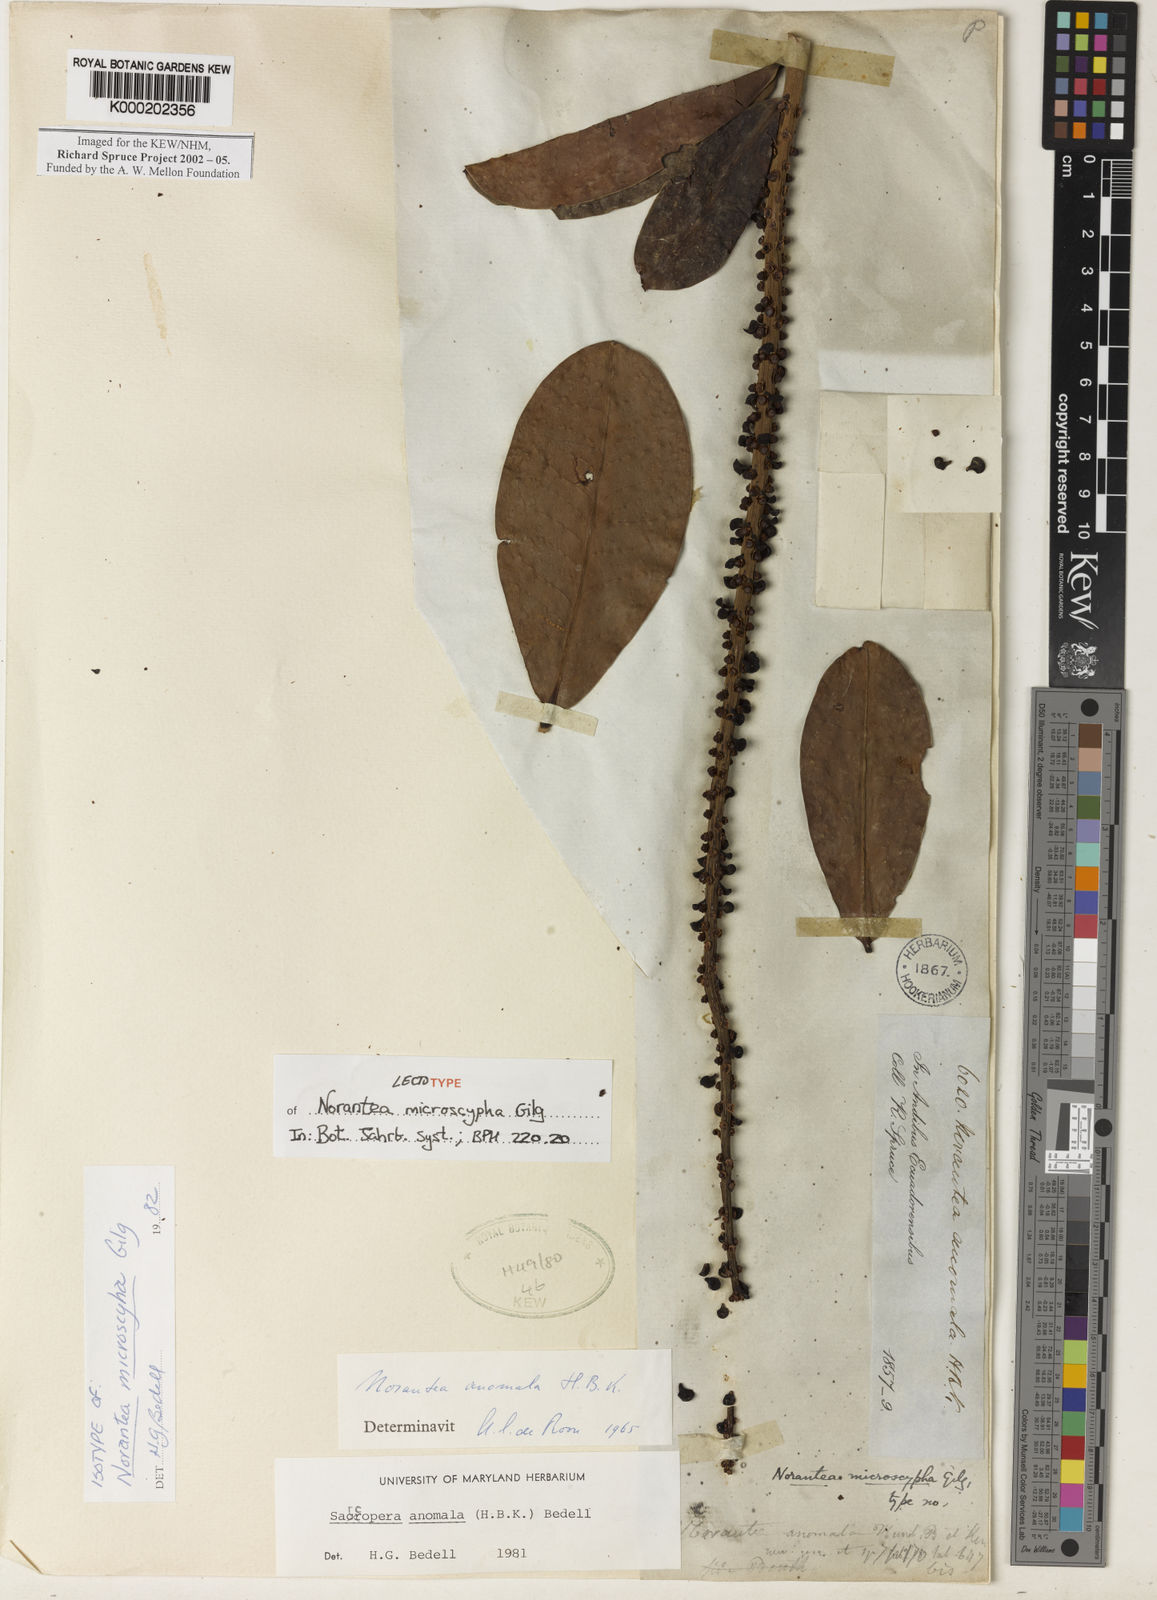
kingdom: Plantae
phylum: Tracheophyta
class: Magnoliopsida
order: Ericales
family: Marcgraviaceae
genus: Sarcopera
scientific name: Sarcopera anomala
